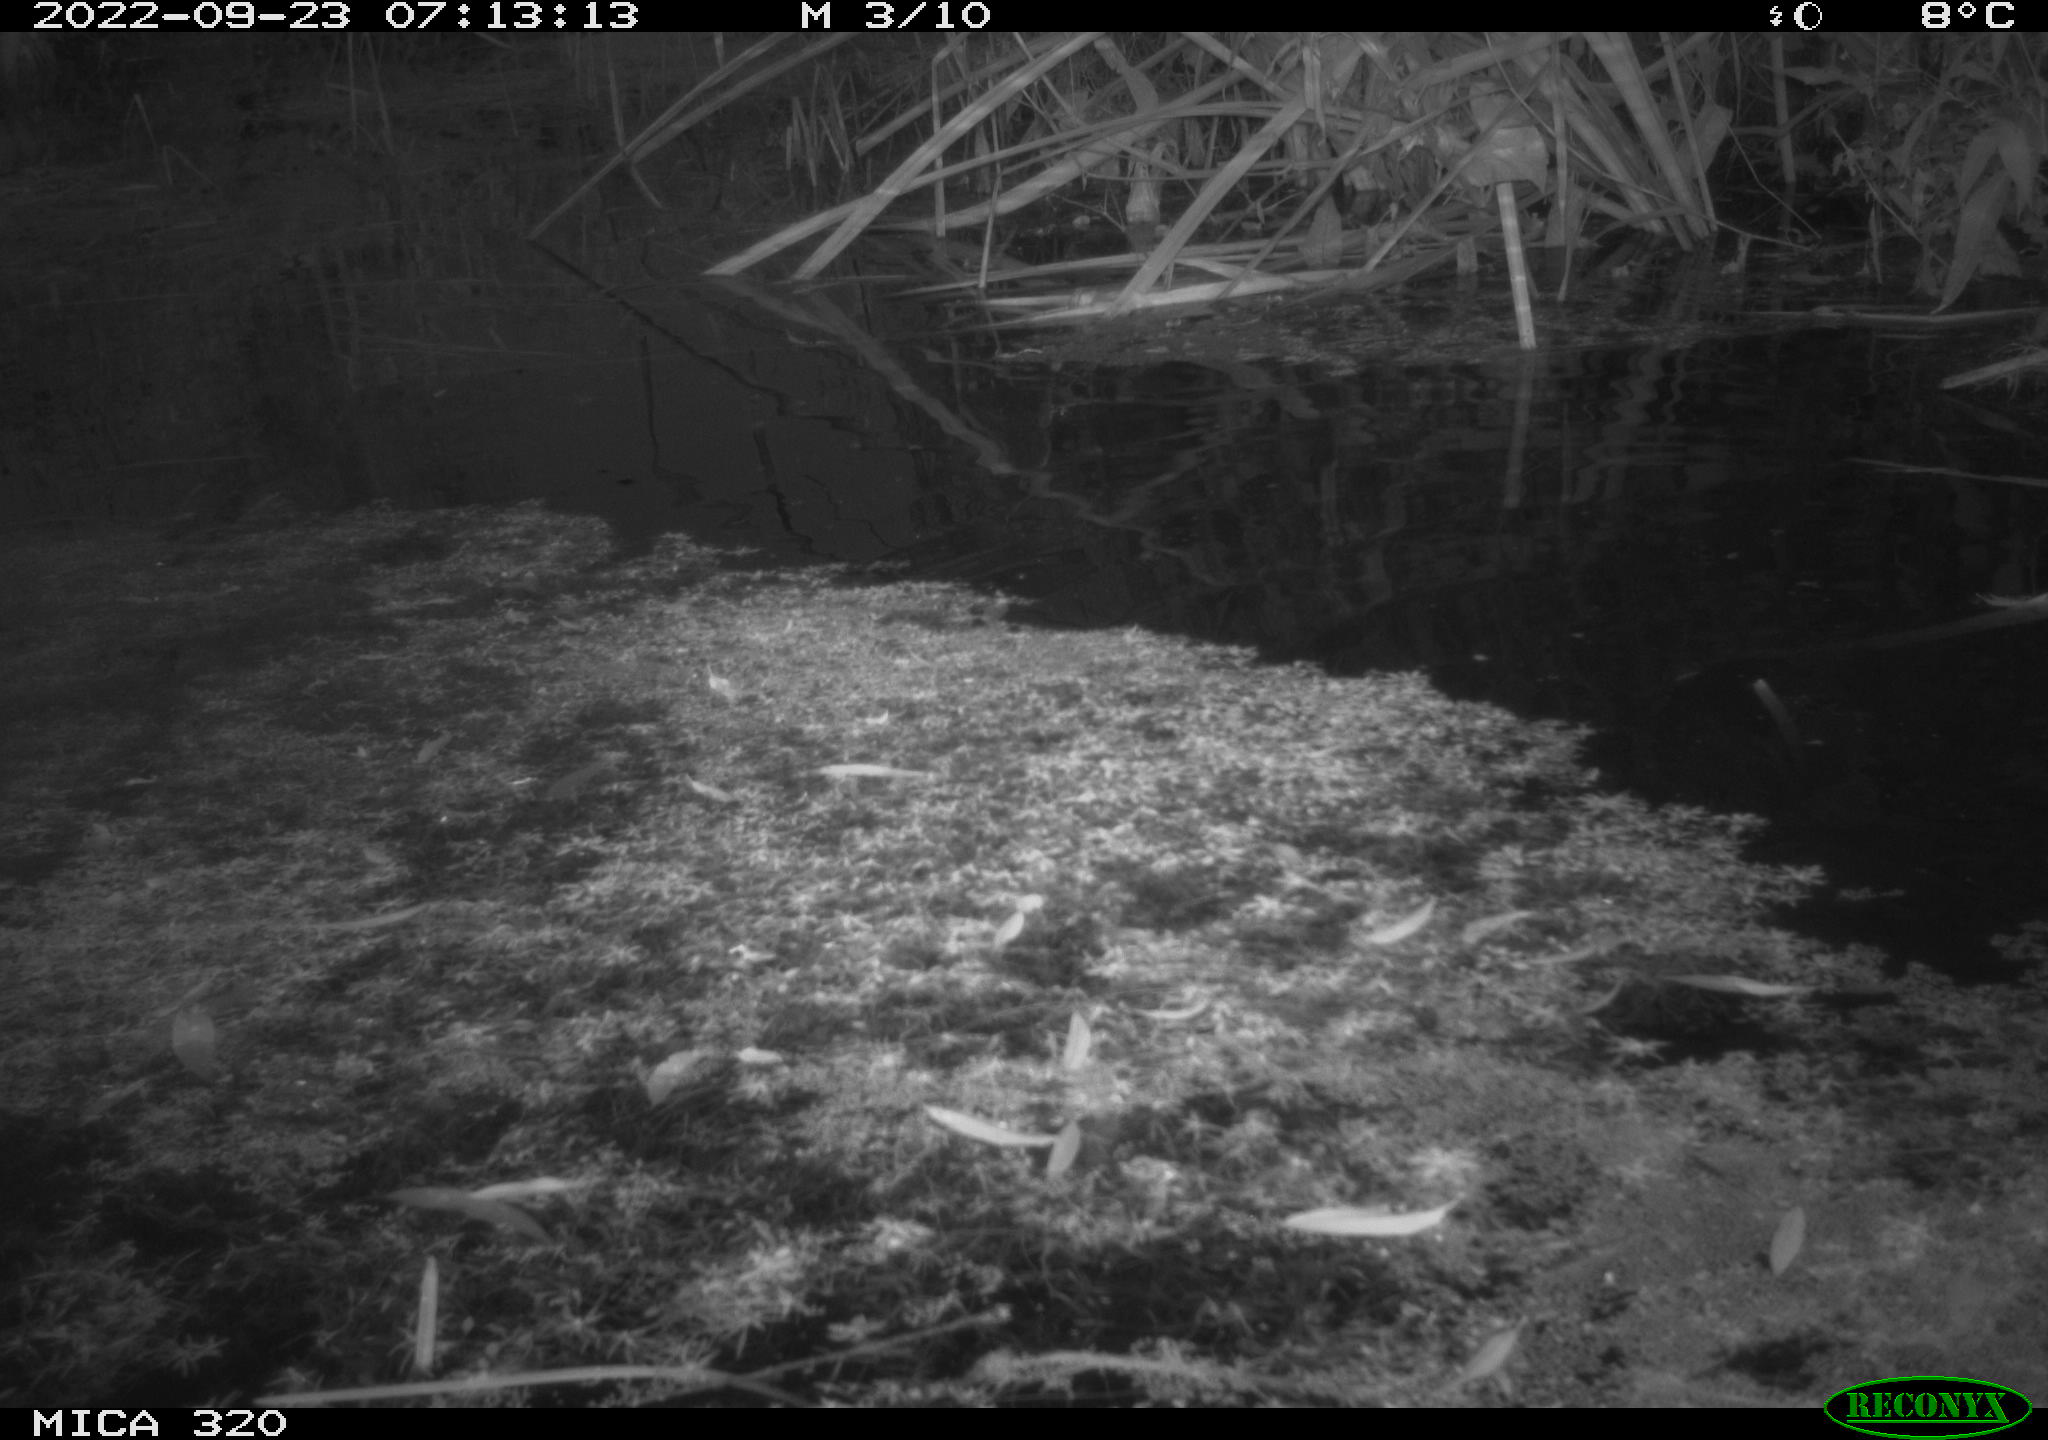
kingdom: Animalia
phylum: Chordata
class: Aves
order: Gruiformes
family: Rallidae
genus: Gallinula
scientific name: Gallinula chloropus
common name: Common moorhen
